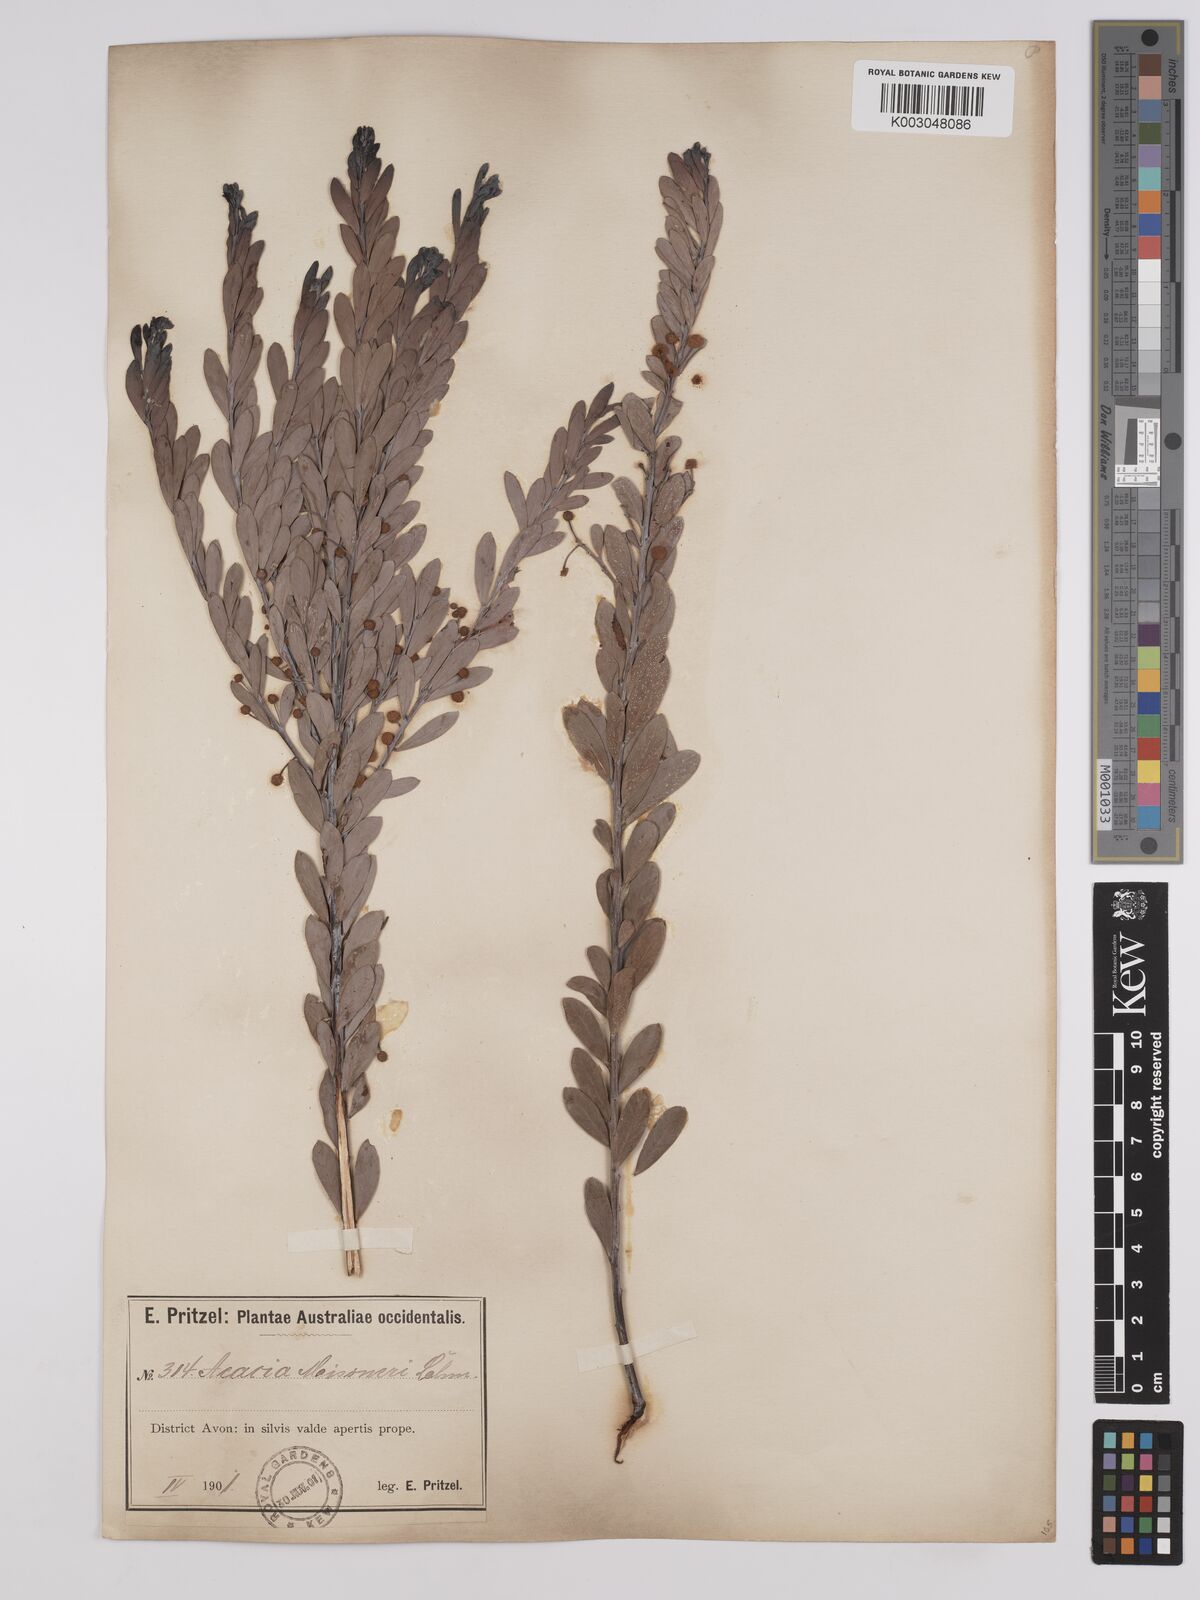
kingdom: Plantae
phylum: Tracheophyta
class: Magnoliopsida
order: Fabales
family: Fabaceae
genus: Acacia
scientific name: Acacia meisneri
